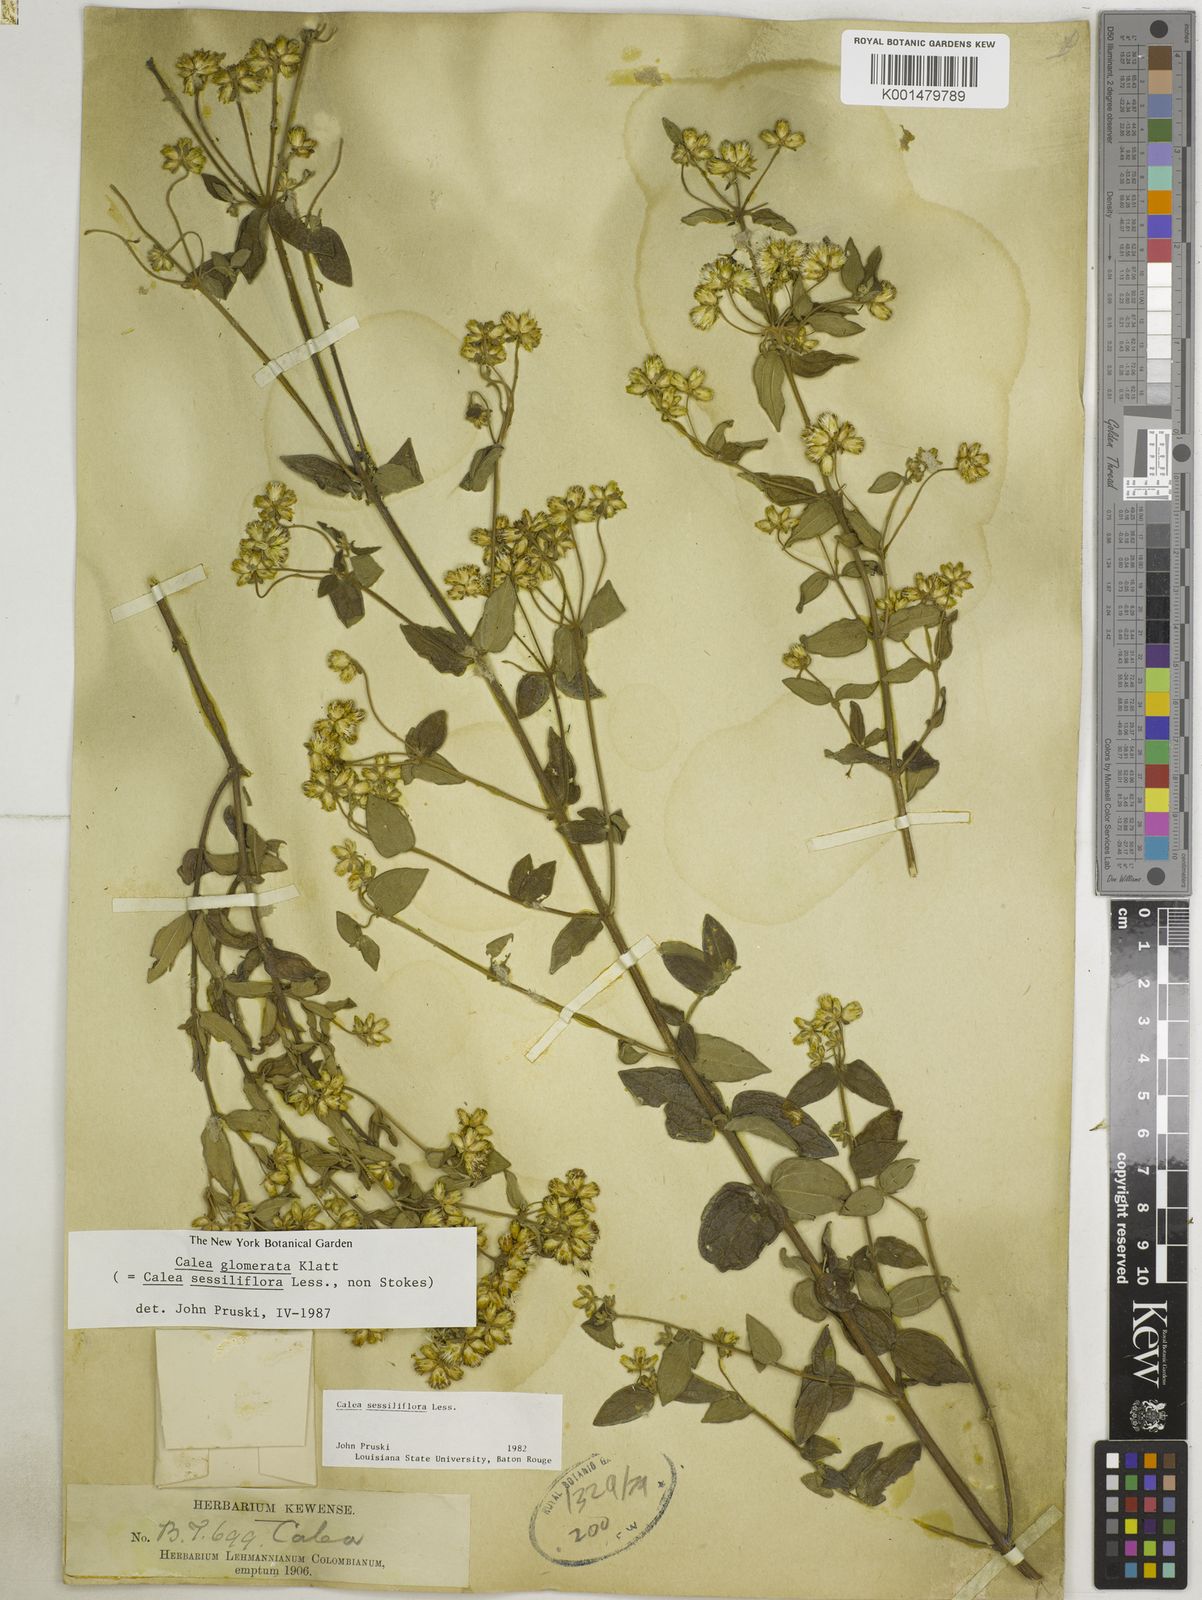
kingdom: Plantae
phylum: Tracheophyta
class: Magnoliopsida
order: Asterales
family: Asteraceae
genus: Calea
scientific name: Calea sessiliflora
